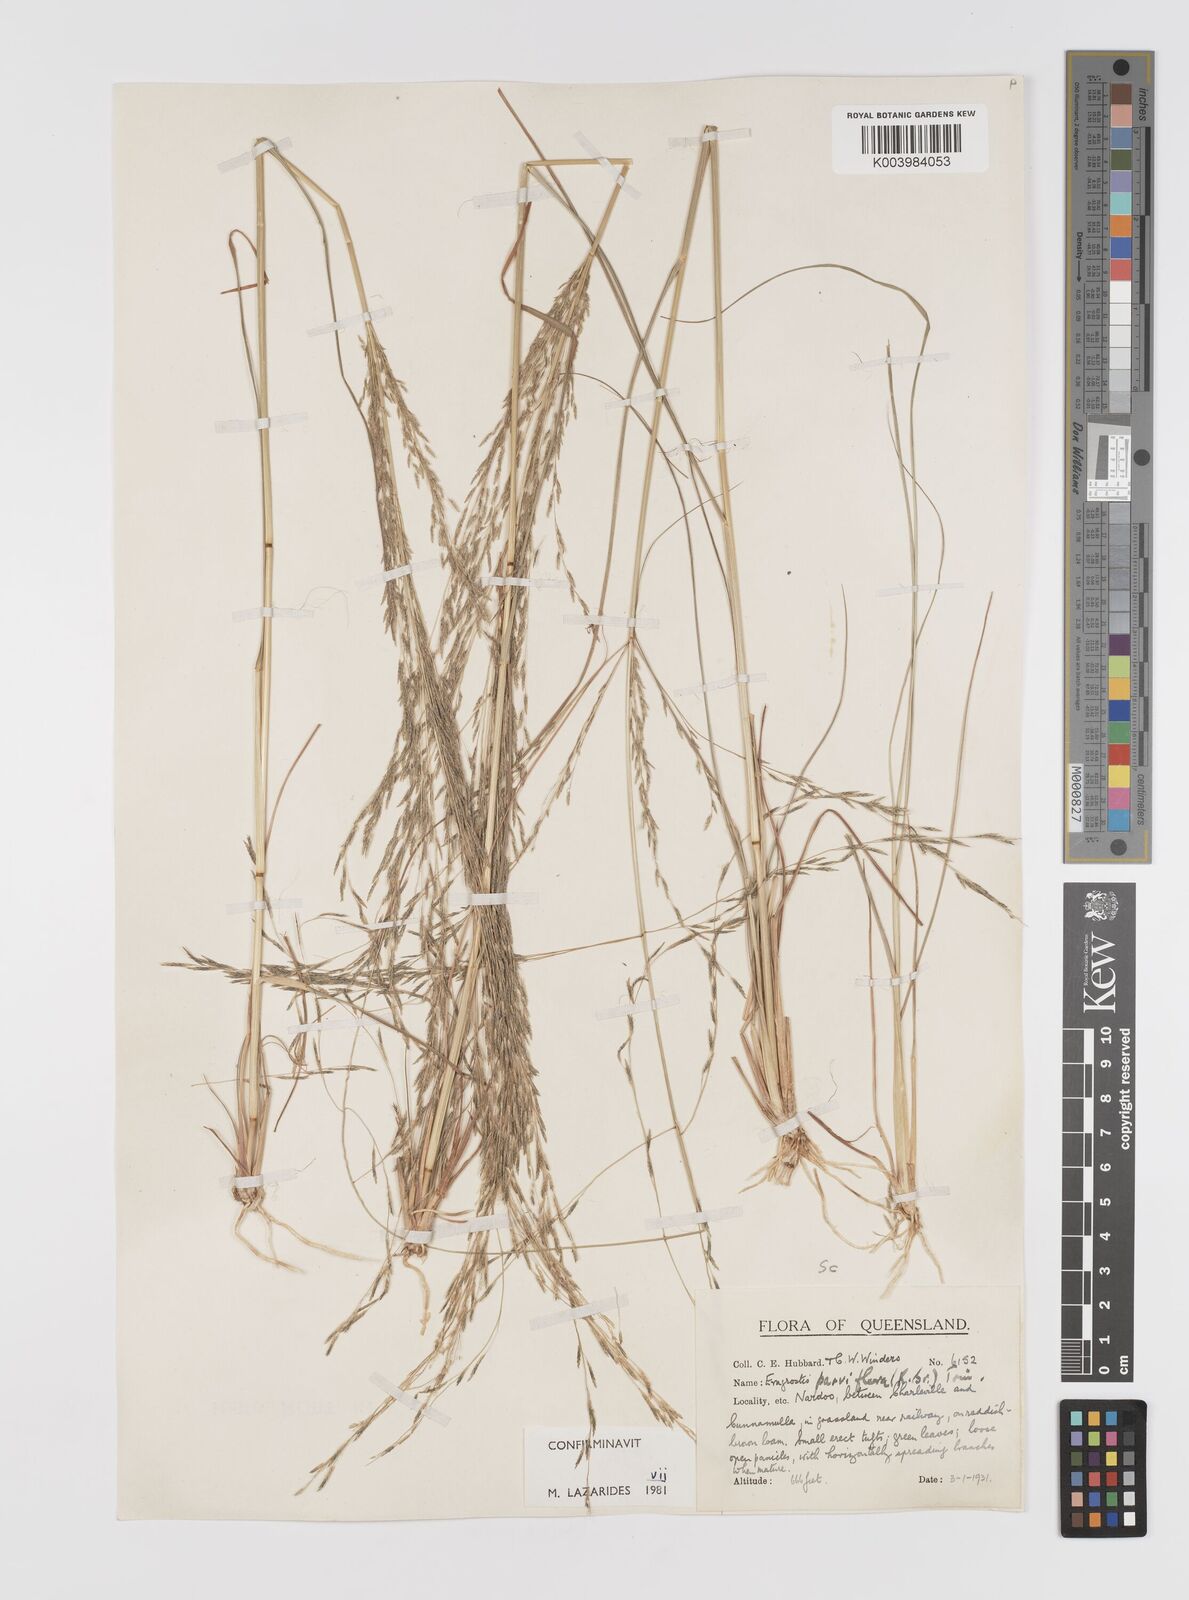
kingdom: Plantae
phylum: Tracheophyta
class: Liliopsida
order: Poales
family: Poaceae
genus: Eragrostis
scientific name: Eragrostis parviflora
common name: Weeping love-grass
